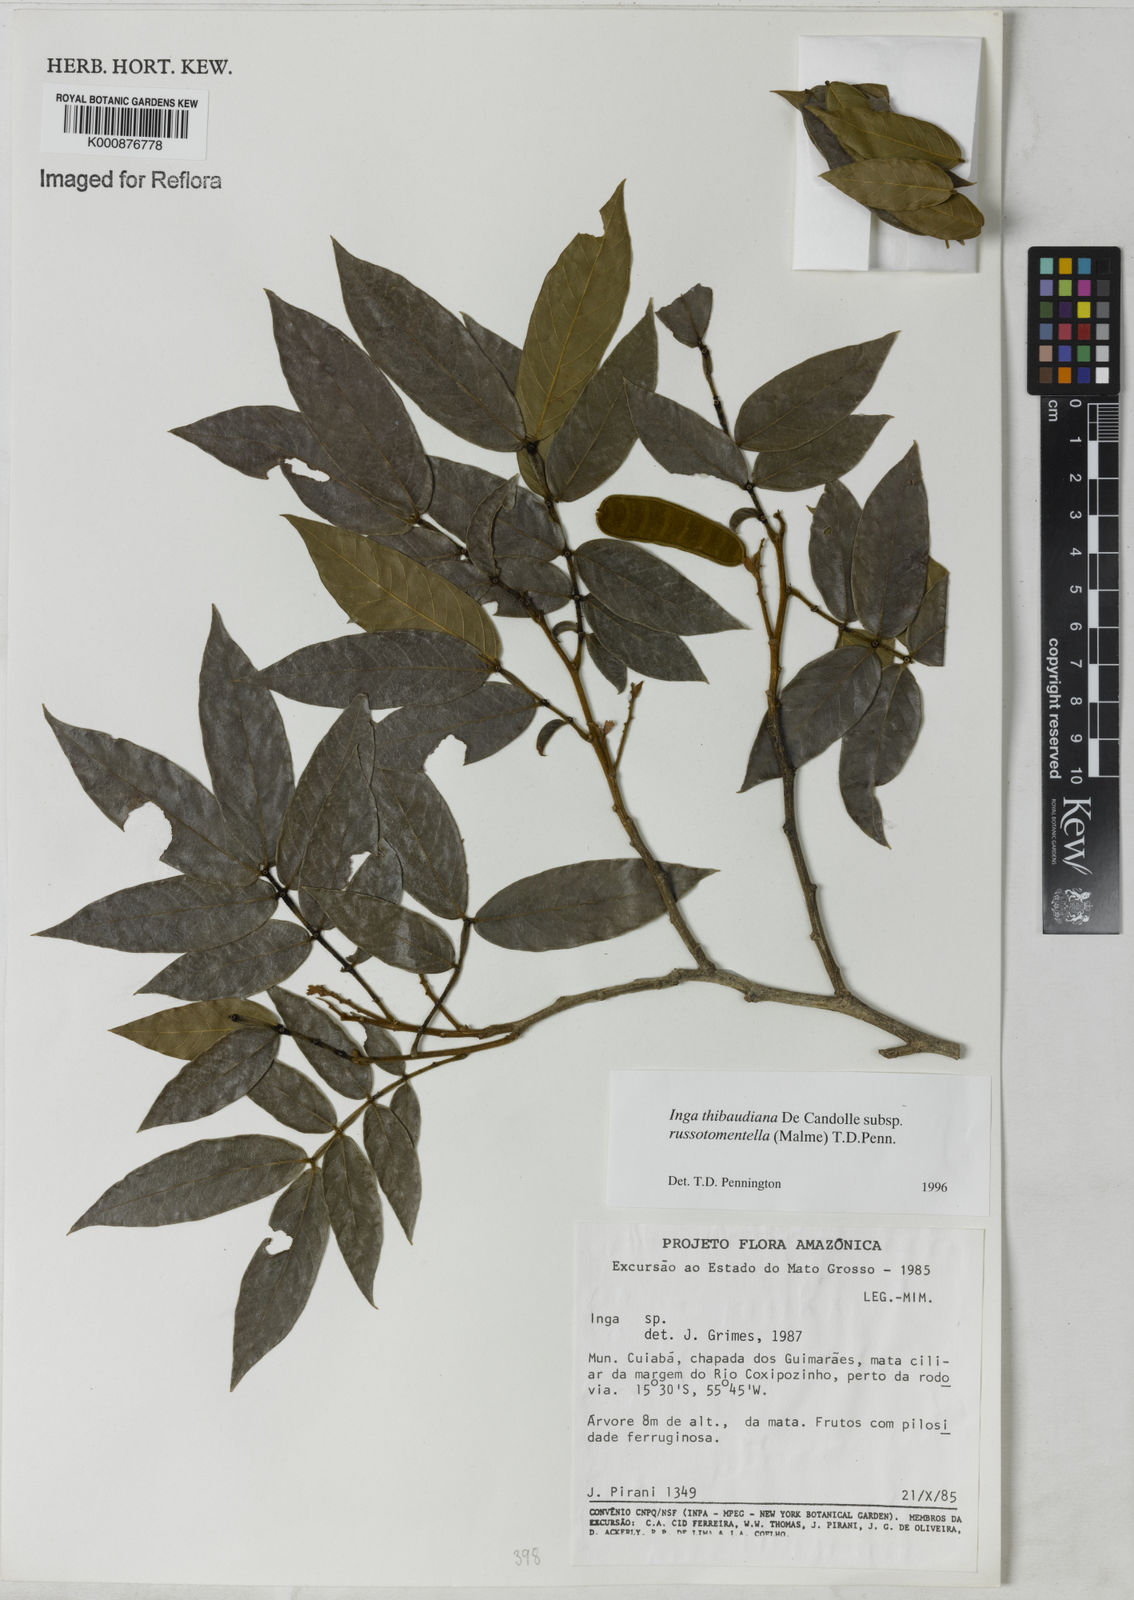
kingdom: Plantae
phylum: Tracheophyta
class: Magnoliopsida
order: Fabales
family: Fabaceae
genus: Inga
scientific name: Inga thibaudiana
